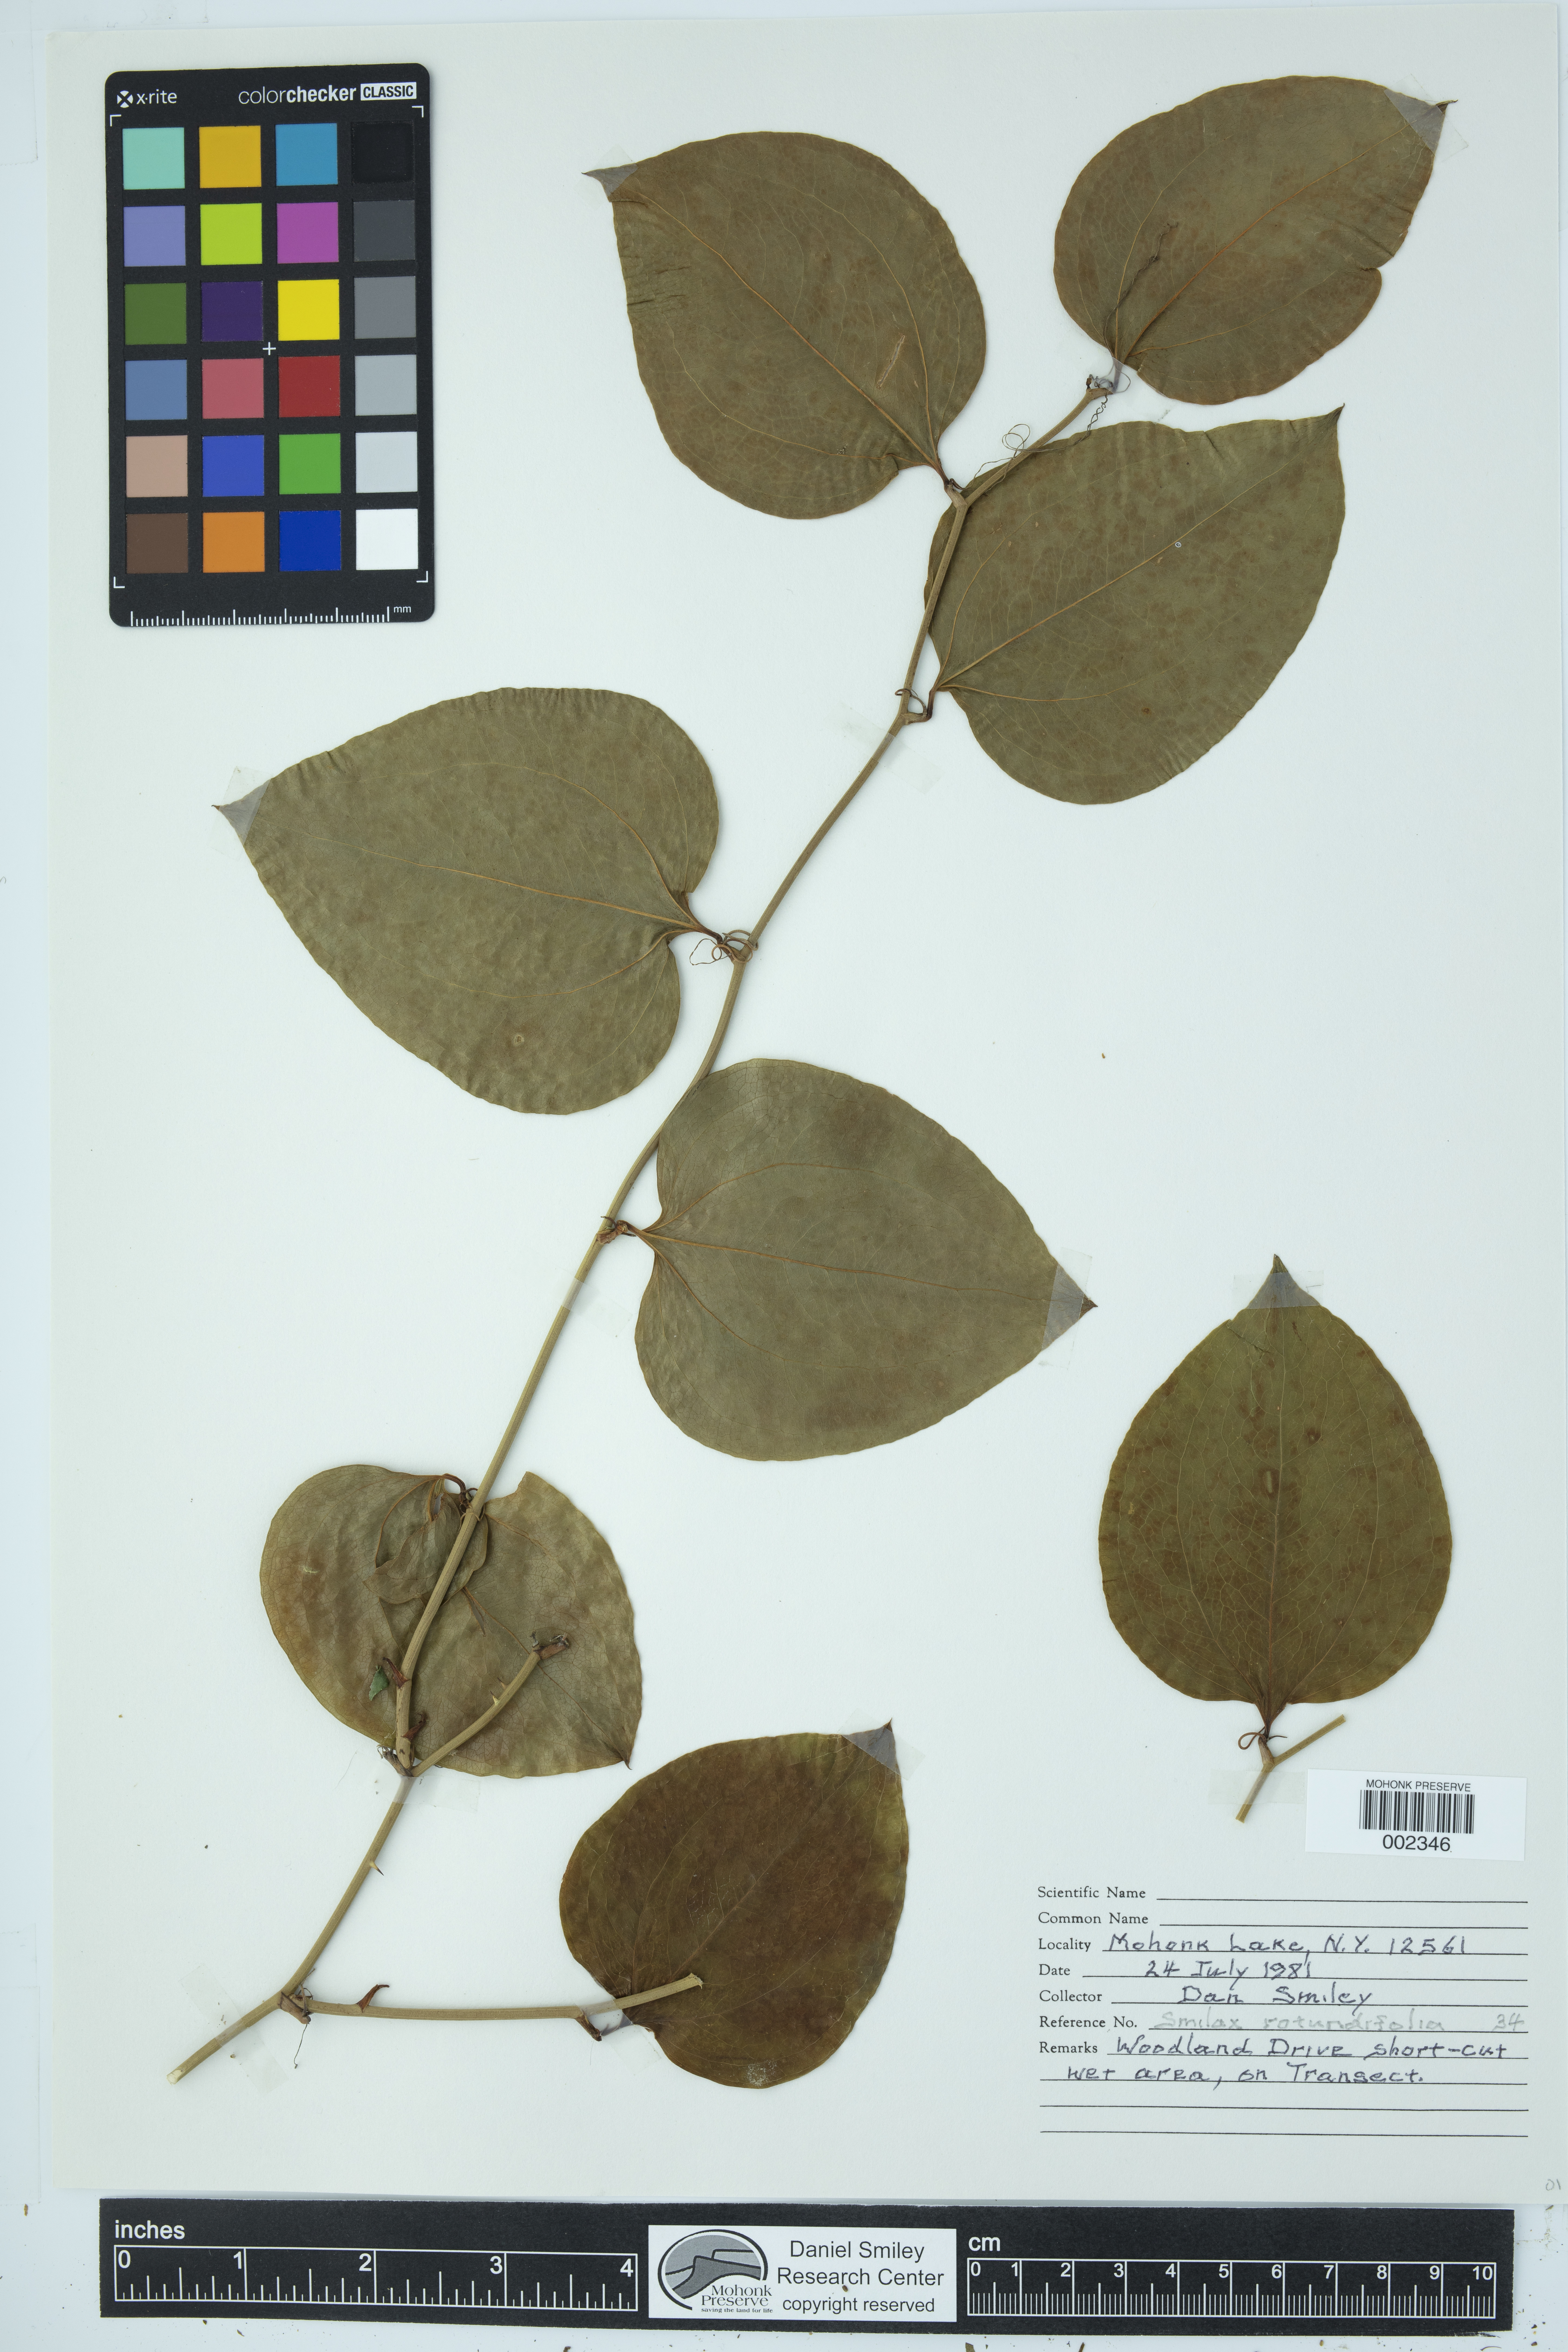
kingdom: Plantae
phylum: Tracheophyta
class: Liliopsida
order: Liliales
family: Smilacaceae
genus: Smilax
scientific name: Smilax rotundifolia
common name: Bullbriar
